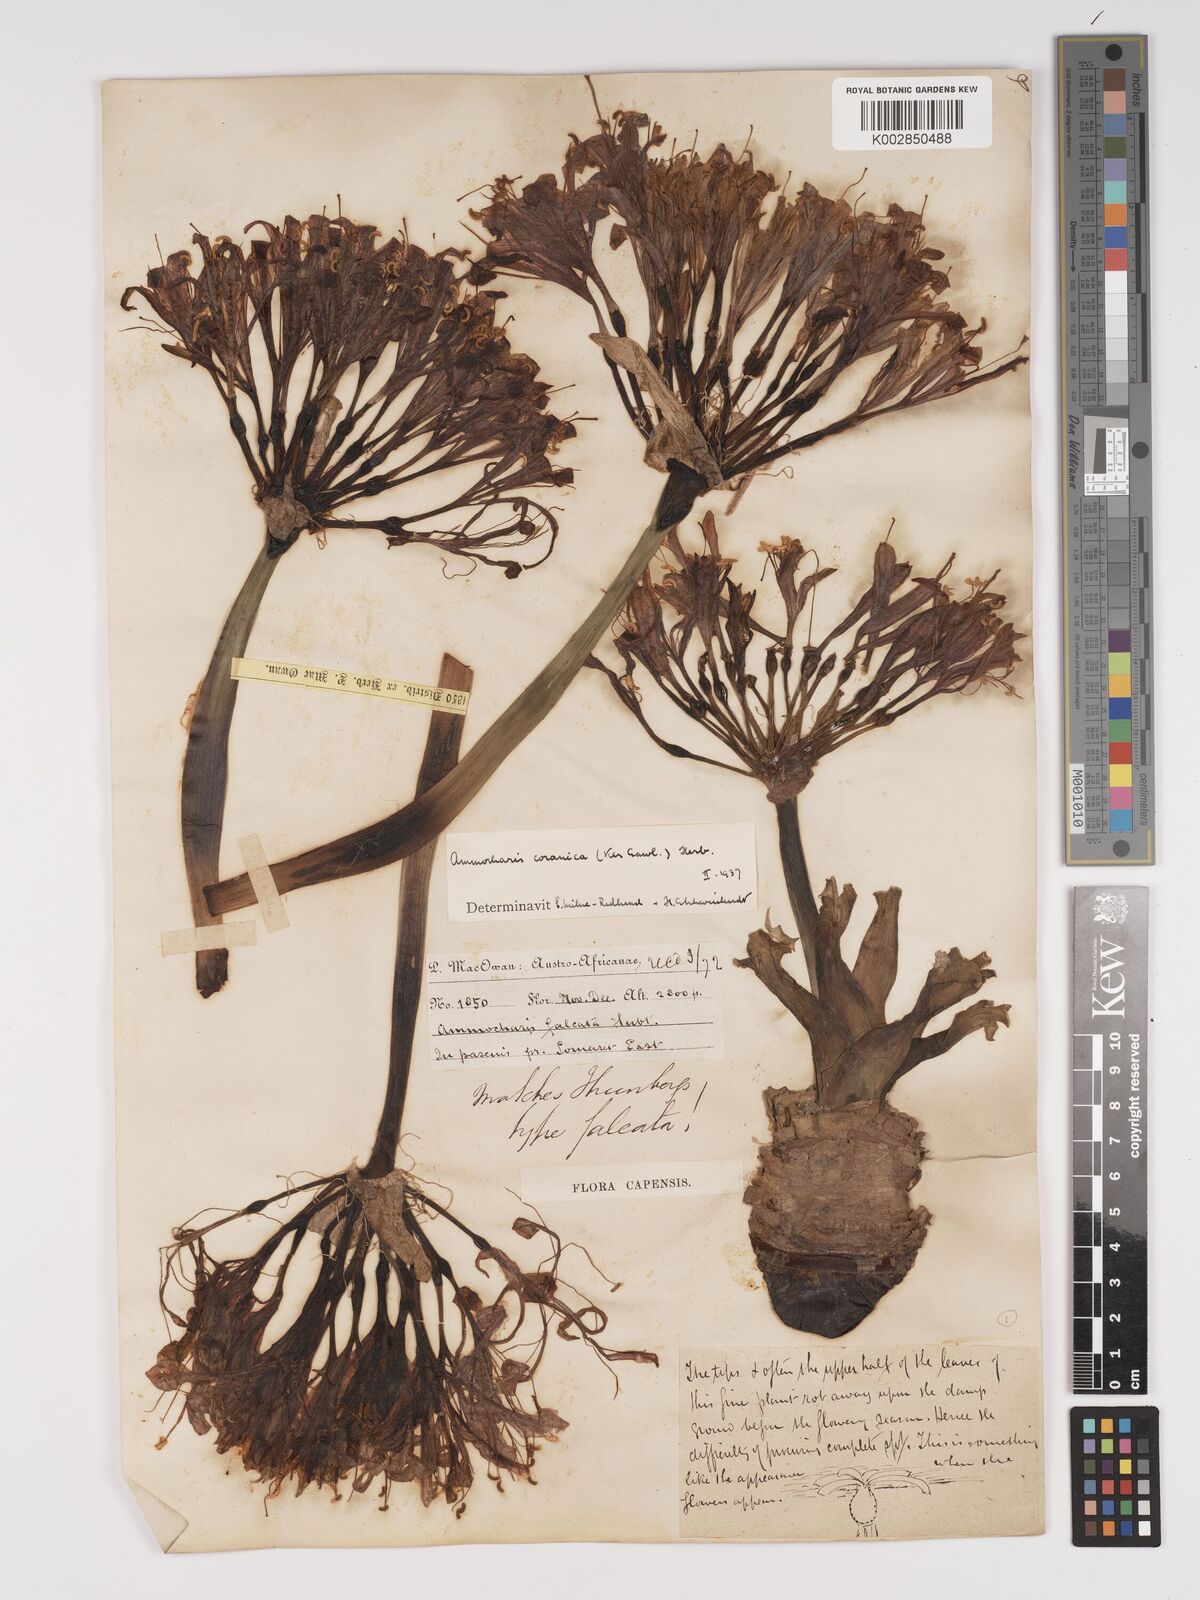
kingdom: Plantae
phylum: Tracheophyta
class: Liliopsida
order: Asparagales
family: Amaryllidaceae
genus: Ammocharis
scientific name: Ammocharis coranica
